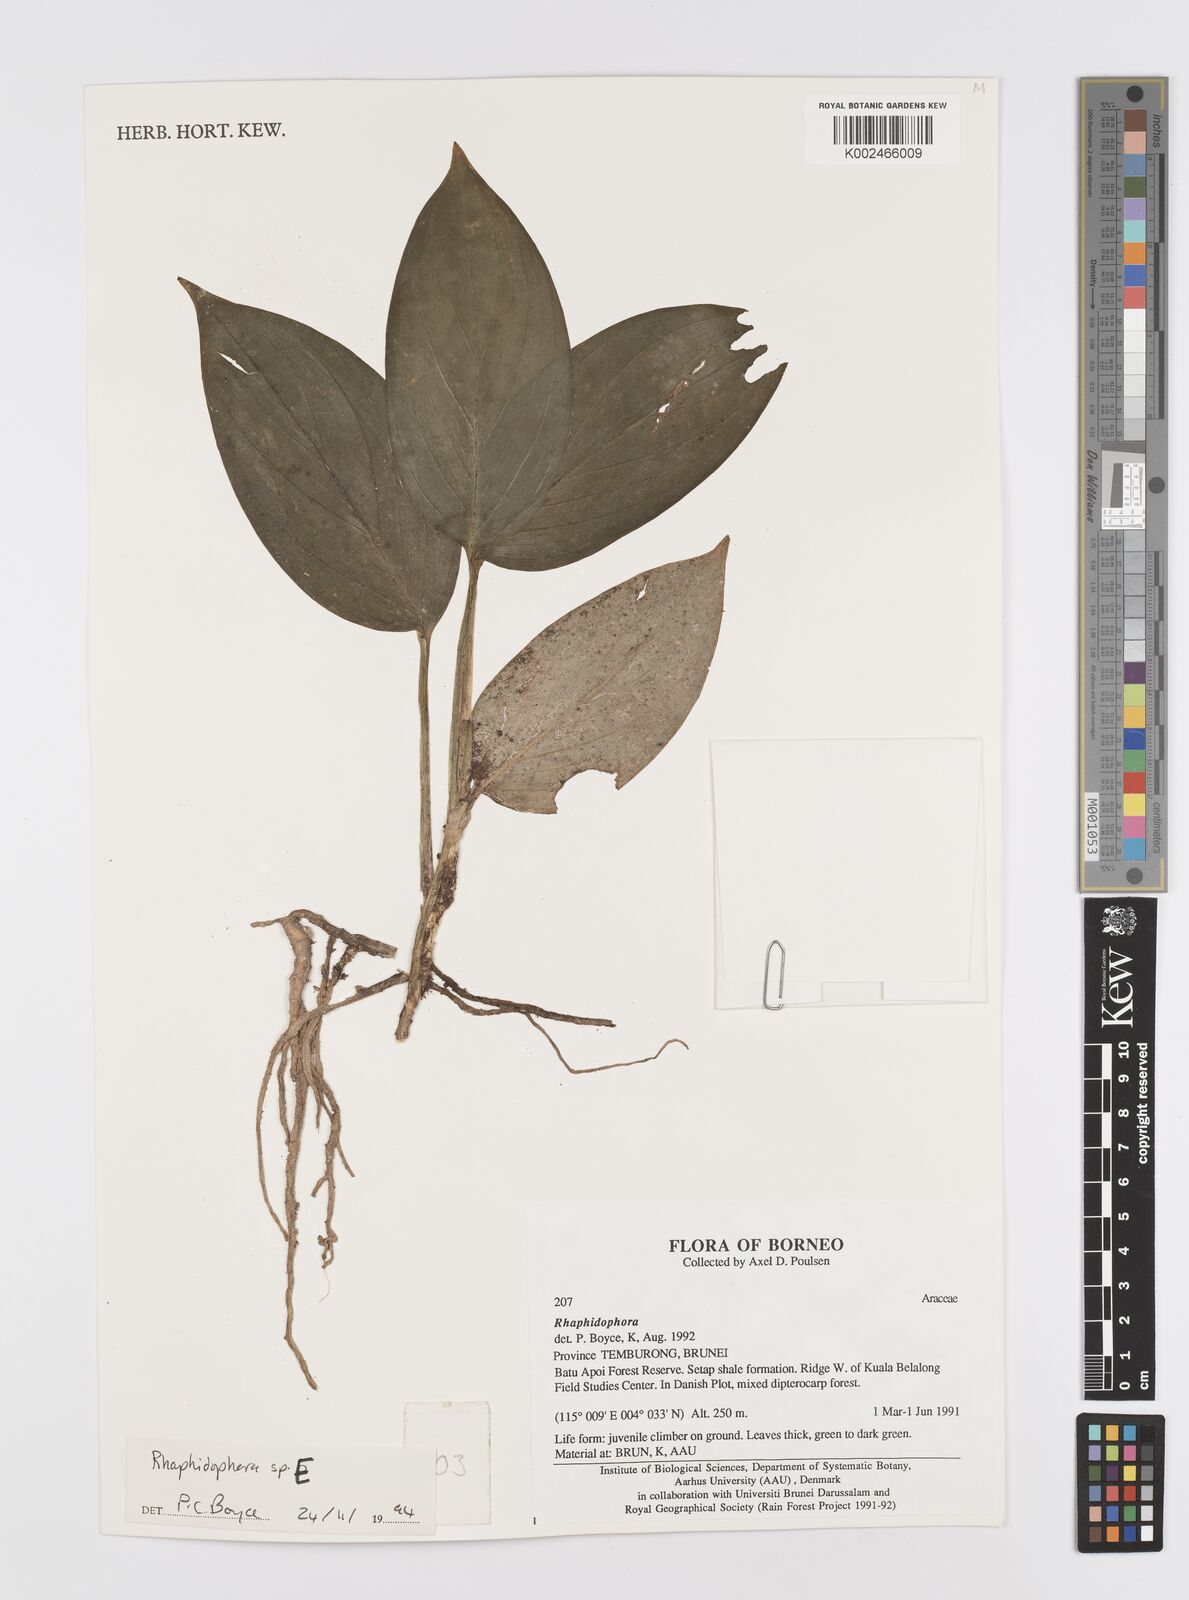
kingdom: Plantae
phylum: Tracheophyta
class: Liliopsida
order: Alismatales
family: Araceae
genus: Rhaphidophora
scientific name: Rhaphidophora
